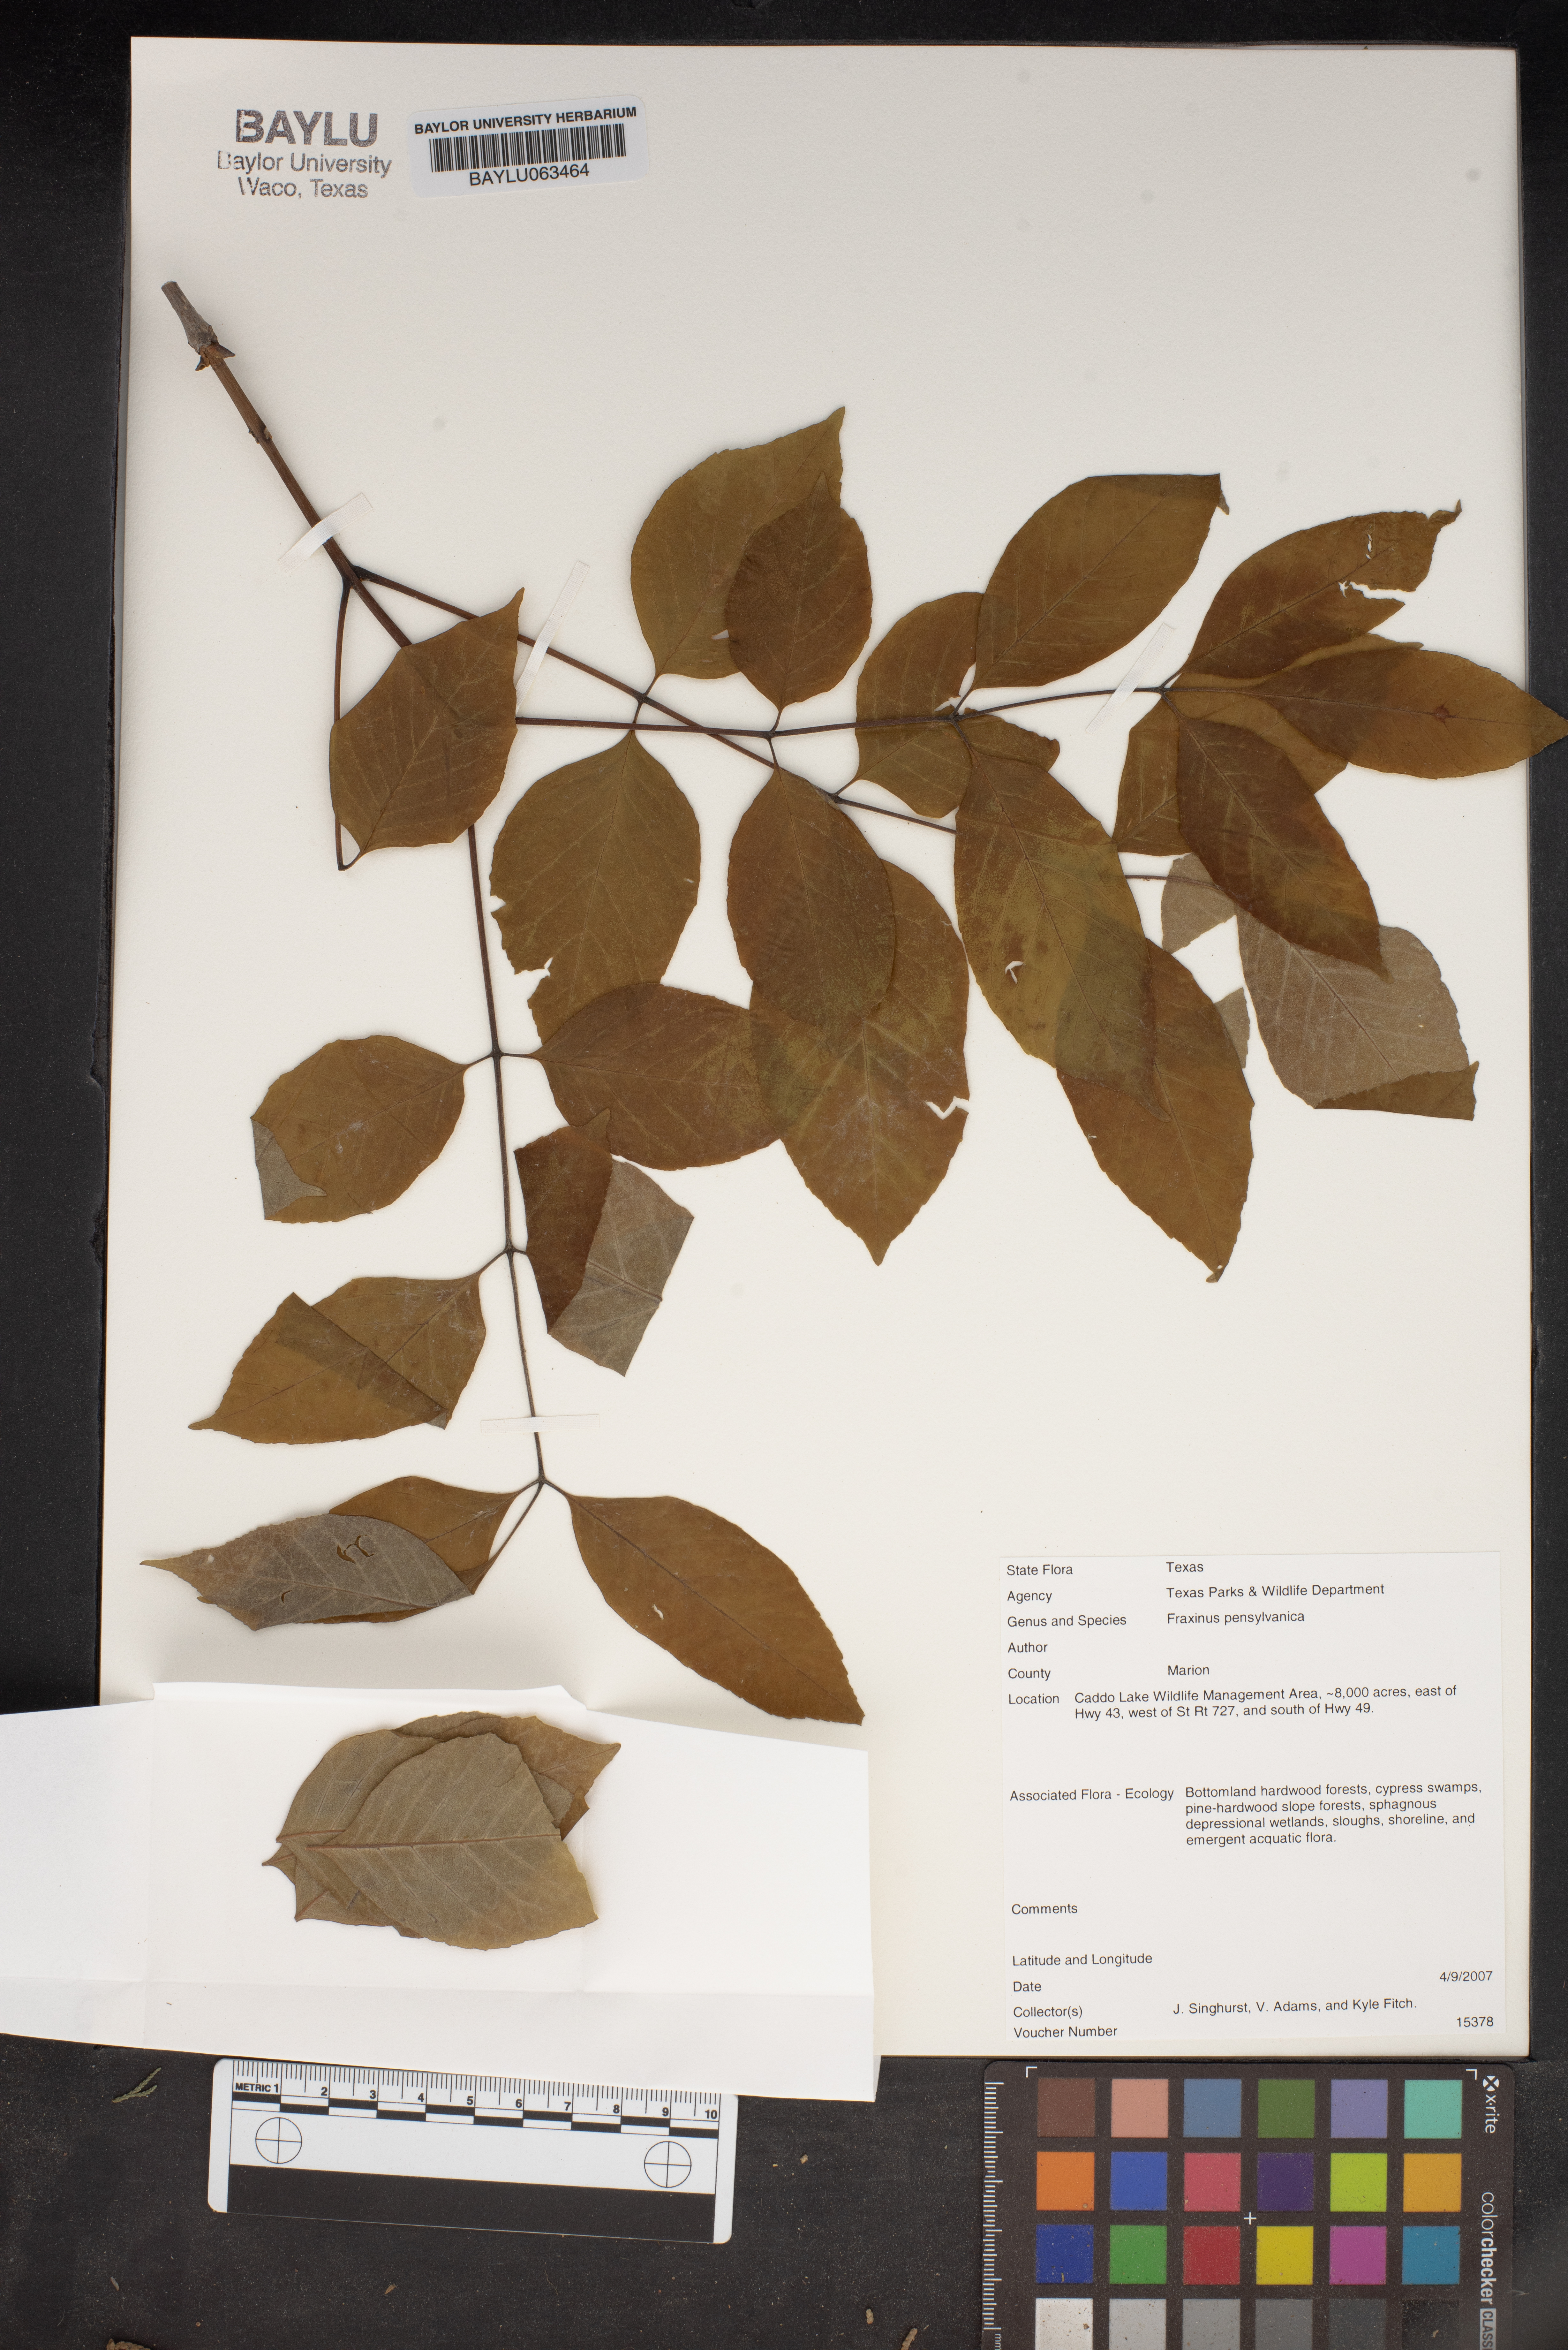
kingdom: Plantae
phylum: Tracheophyta
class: Magnoliopsida
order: Lamiales
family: Oleaceae
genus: Fraxinus
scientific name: Fraxinus pennsylvanica
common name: Green ash
